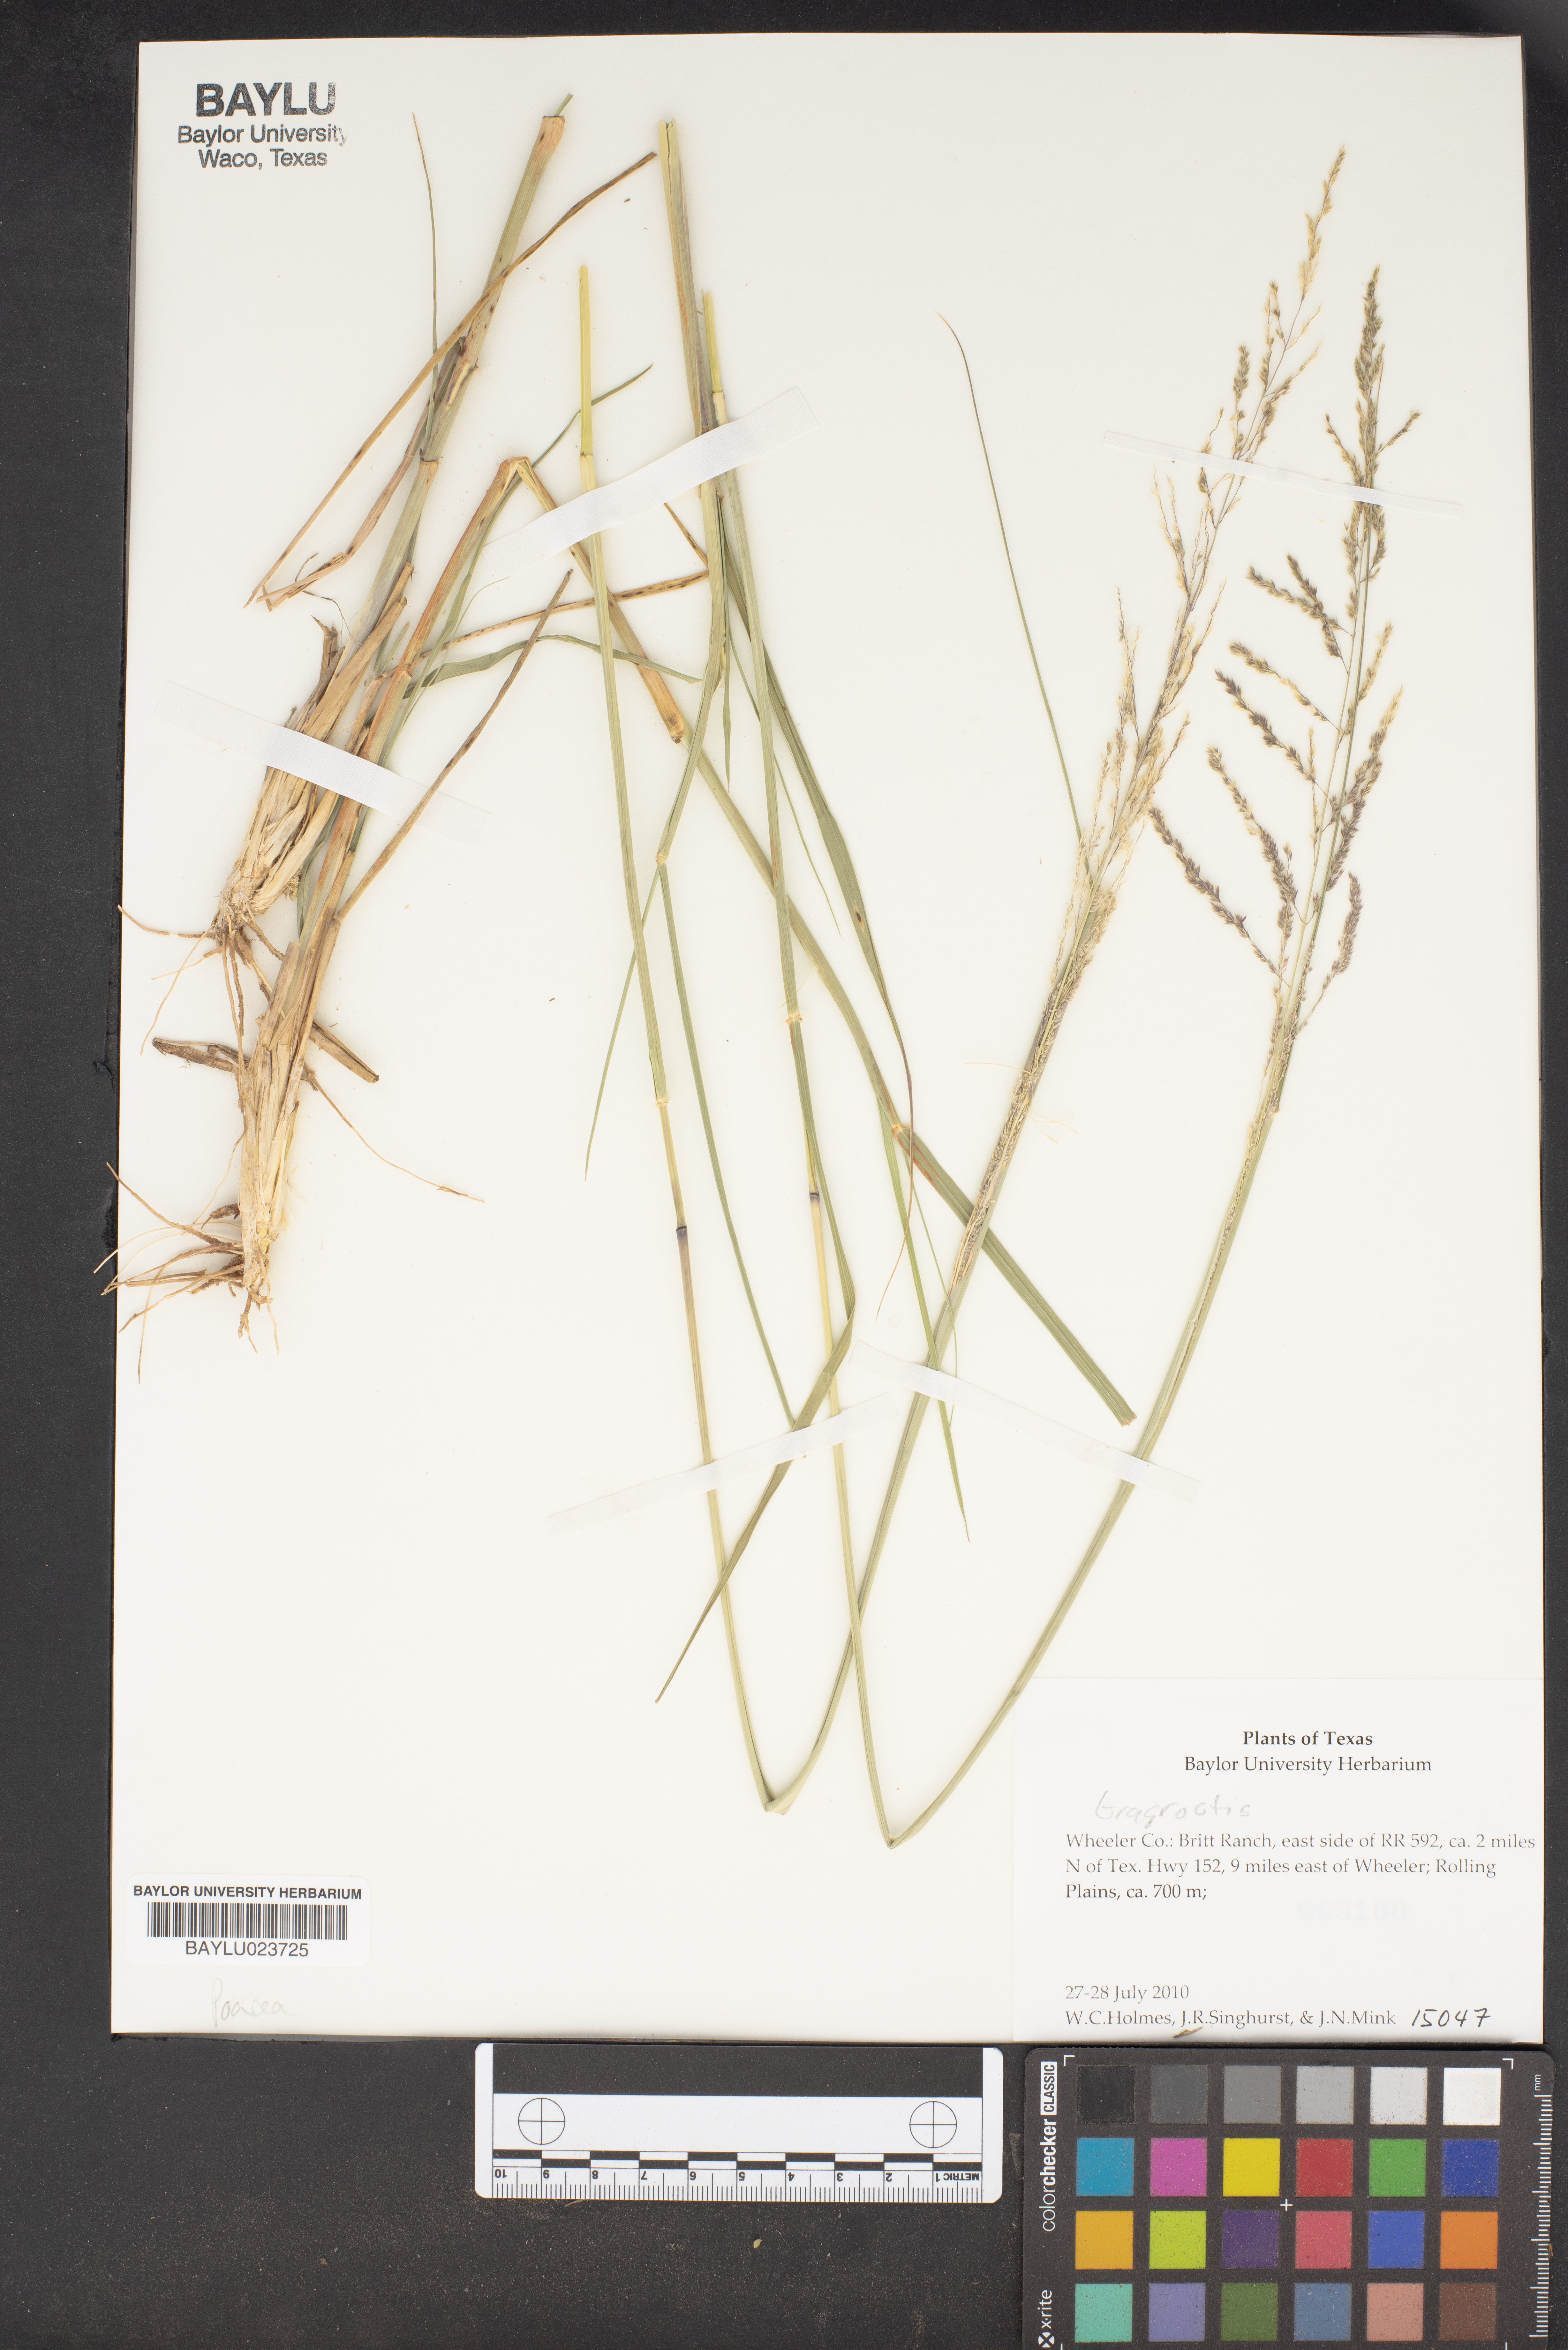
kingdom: Plantae
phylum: Tracheophyta
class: Liliopsida
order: Poales
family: Poaceae
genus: Eragrostis
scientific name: Eragrostis
